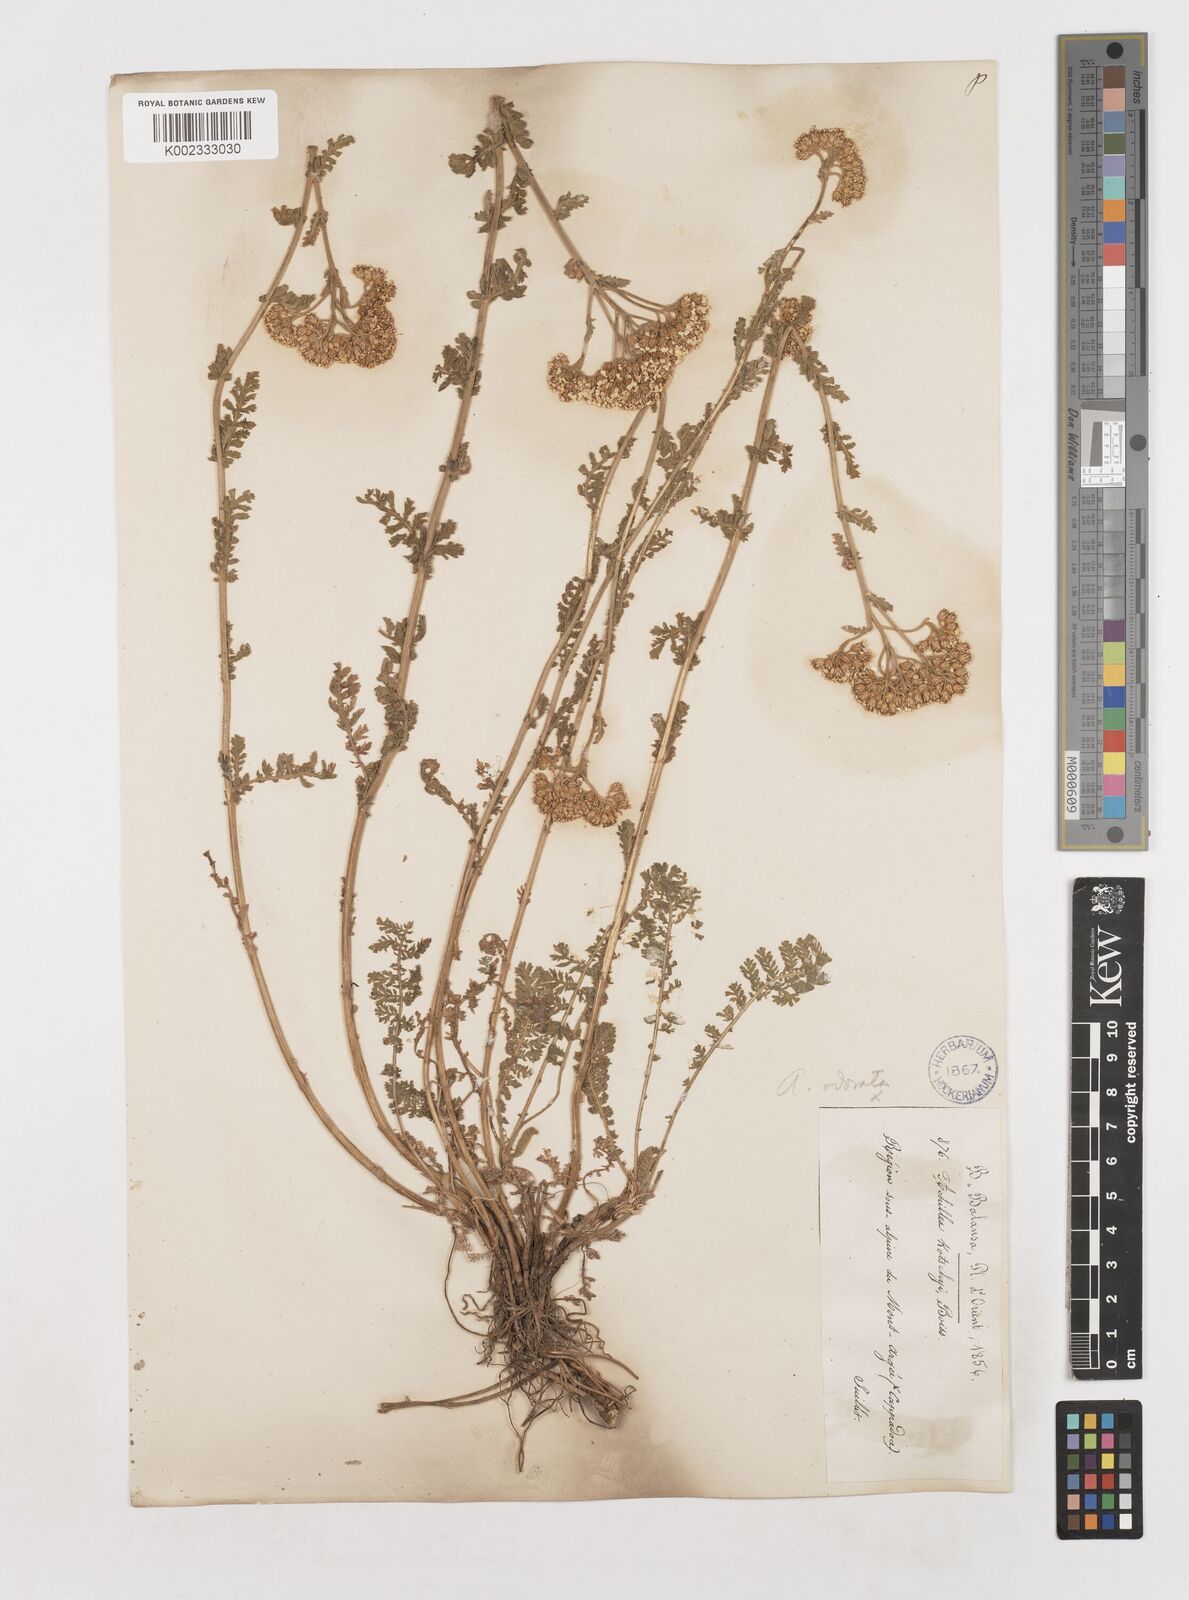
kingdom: Plantae
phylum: Tracheophyta
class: Magnoliopsida
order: Asterales
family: Asteraceae
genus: Achillea
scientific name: Achillea odorata
